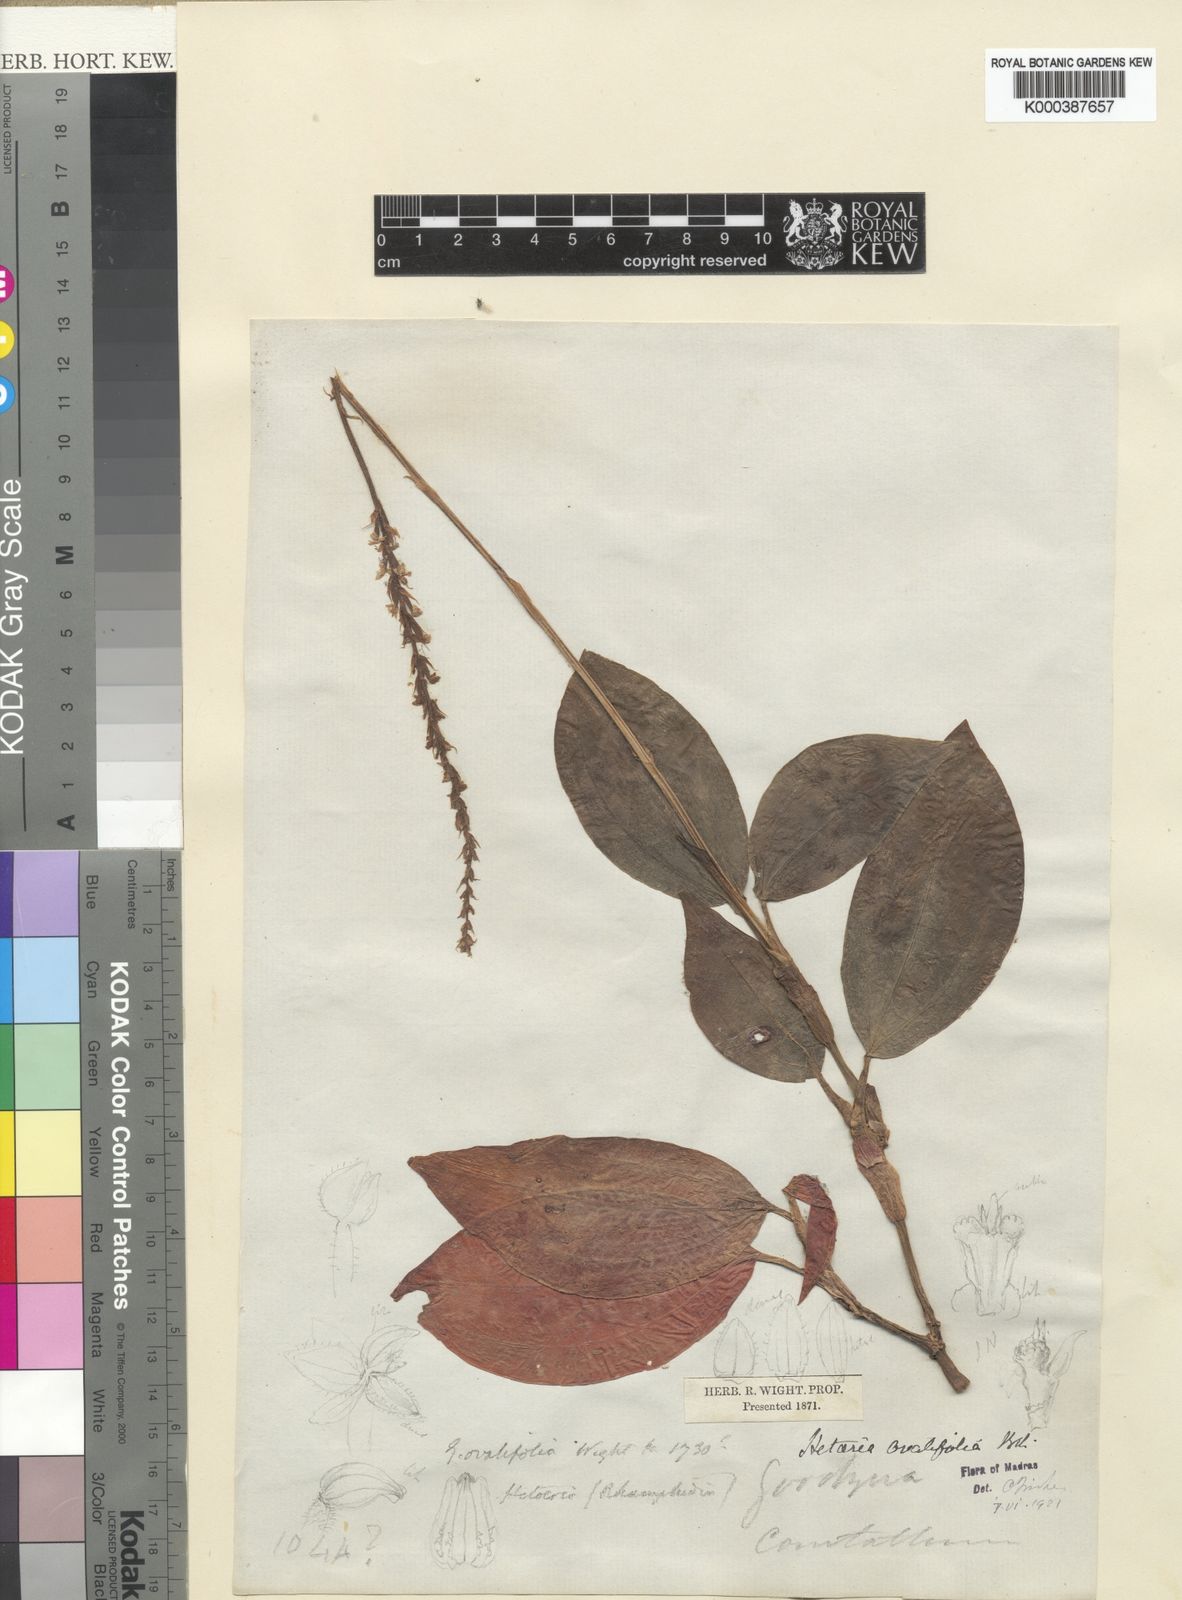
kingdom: Plantae
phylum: Tracheophyta
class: Liliopsida
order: Asparagales
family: Orchidaceae
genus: Hetaeria
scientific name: Hetaeria oblongifolia
